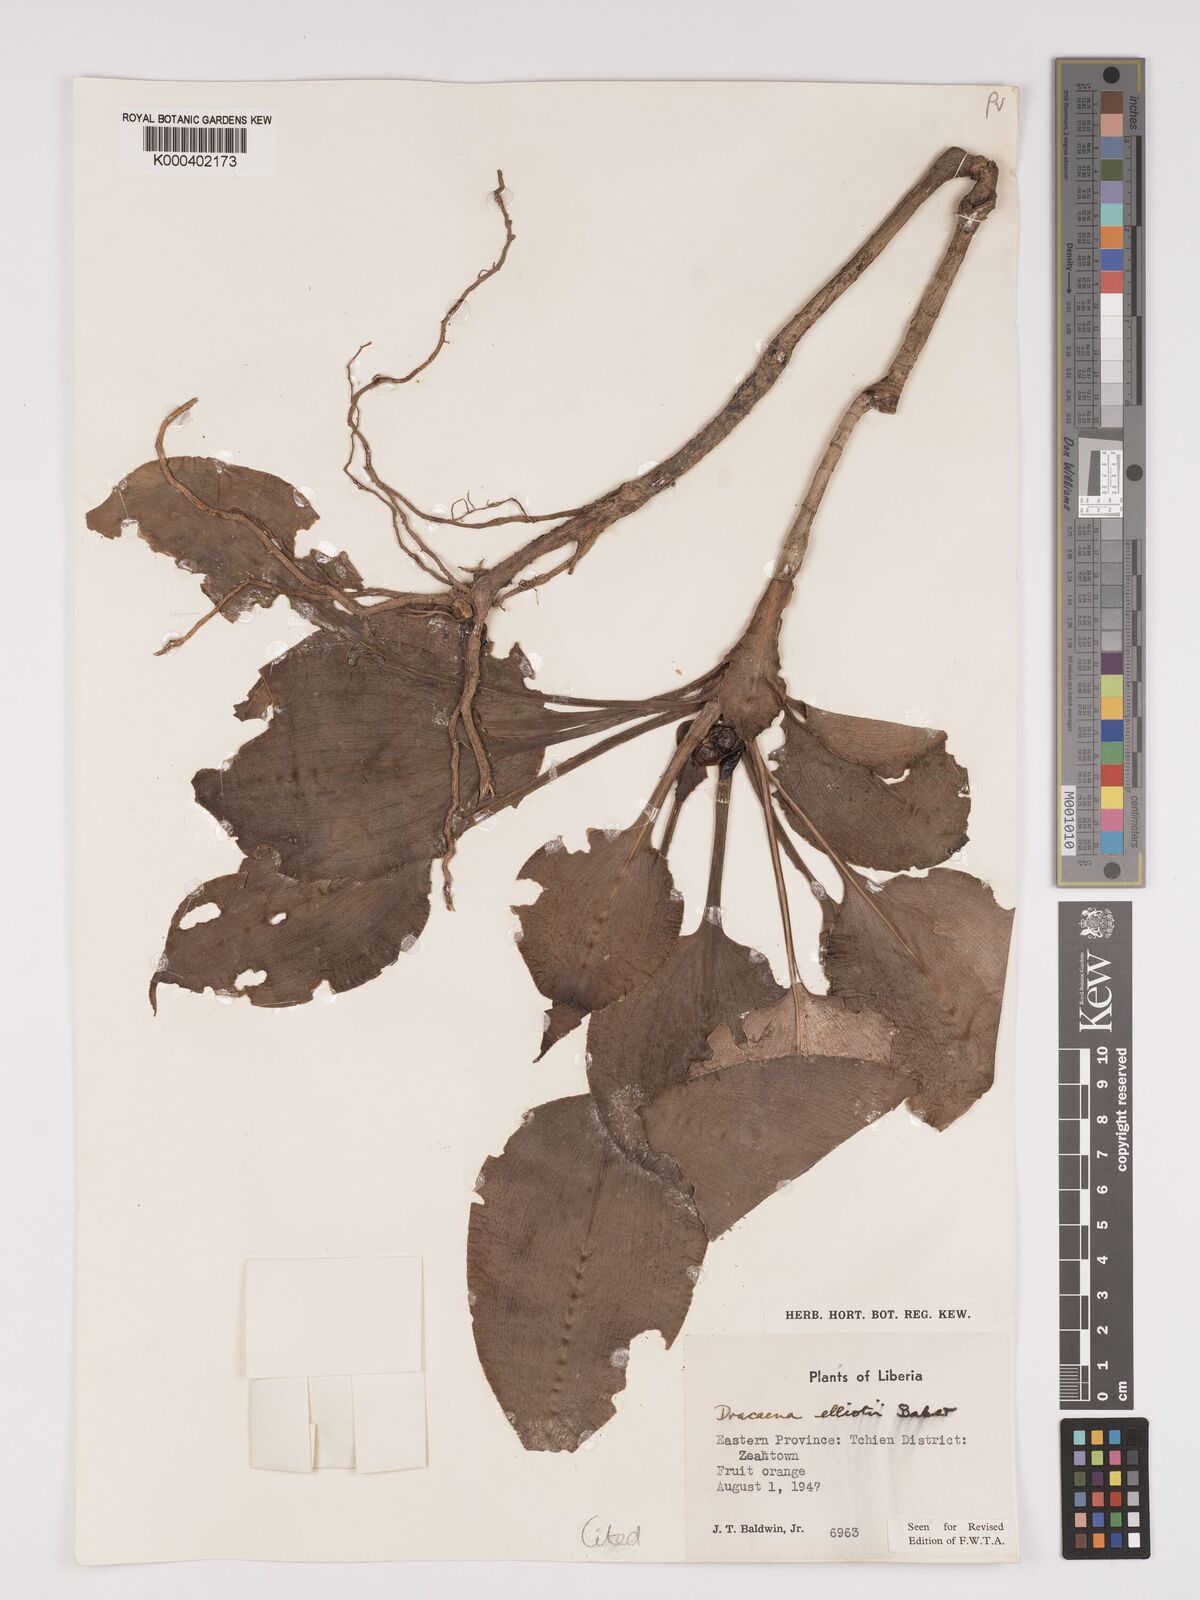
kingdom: Plantae
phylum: Tracheophyta
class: Liliopsida
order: Asparagales
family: Asparagaceae
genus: Dracaena
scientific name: Dracaena cristula
